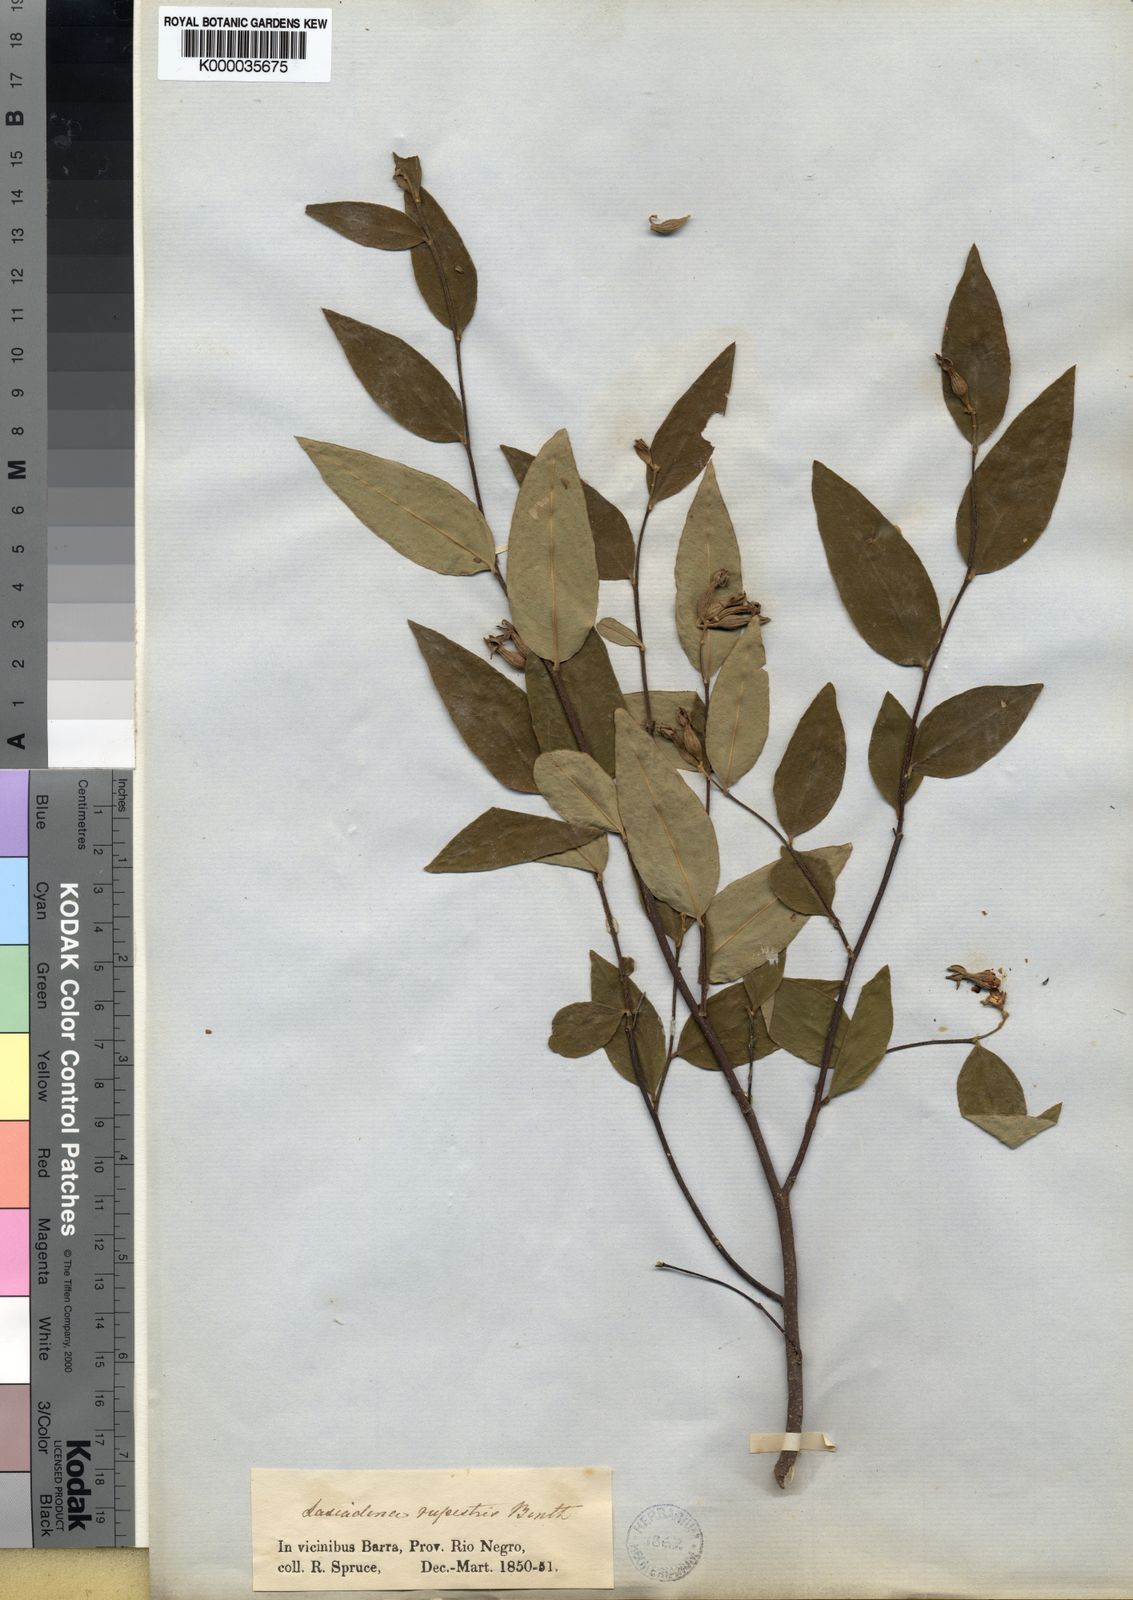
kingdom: Plantae
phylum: Tracheophyta
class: Magnoliopsida
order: Malvales
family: Thymelaeaceae
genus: Lasiadenia
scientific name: Lasiadenia rupestris
